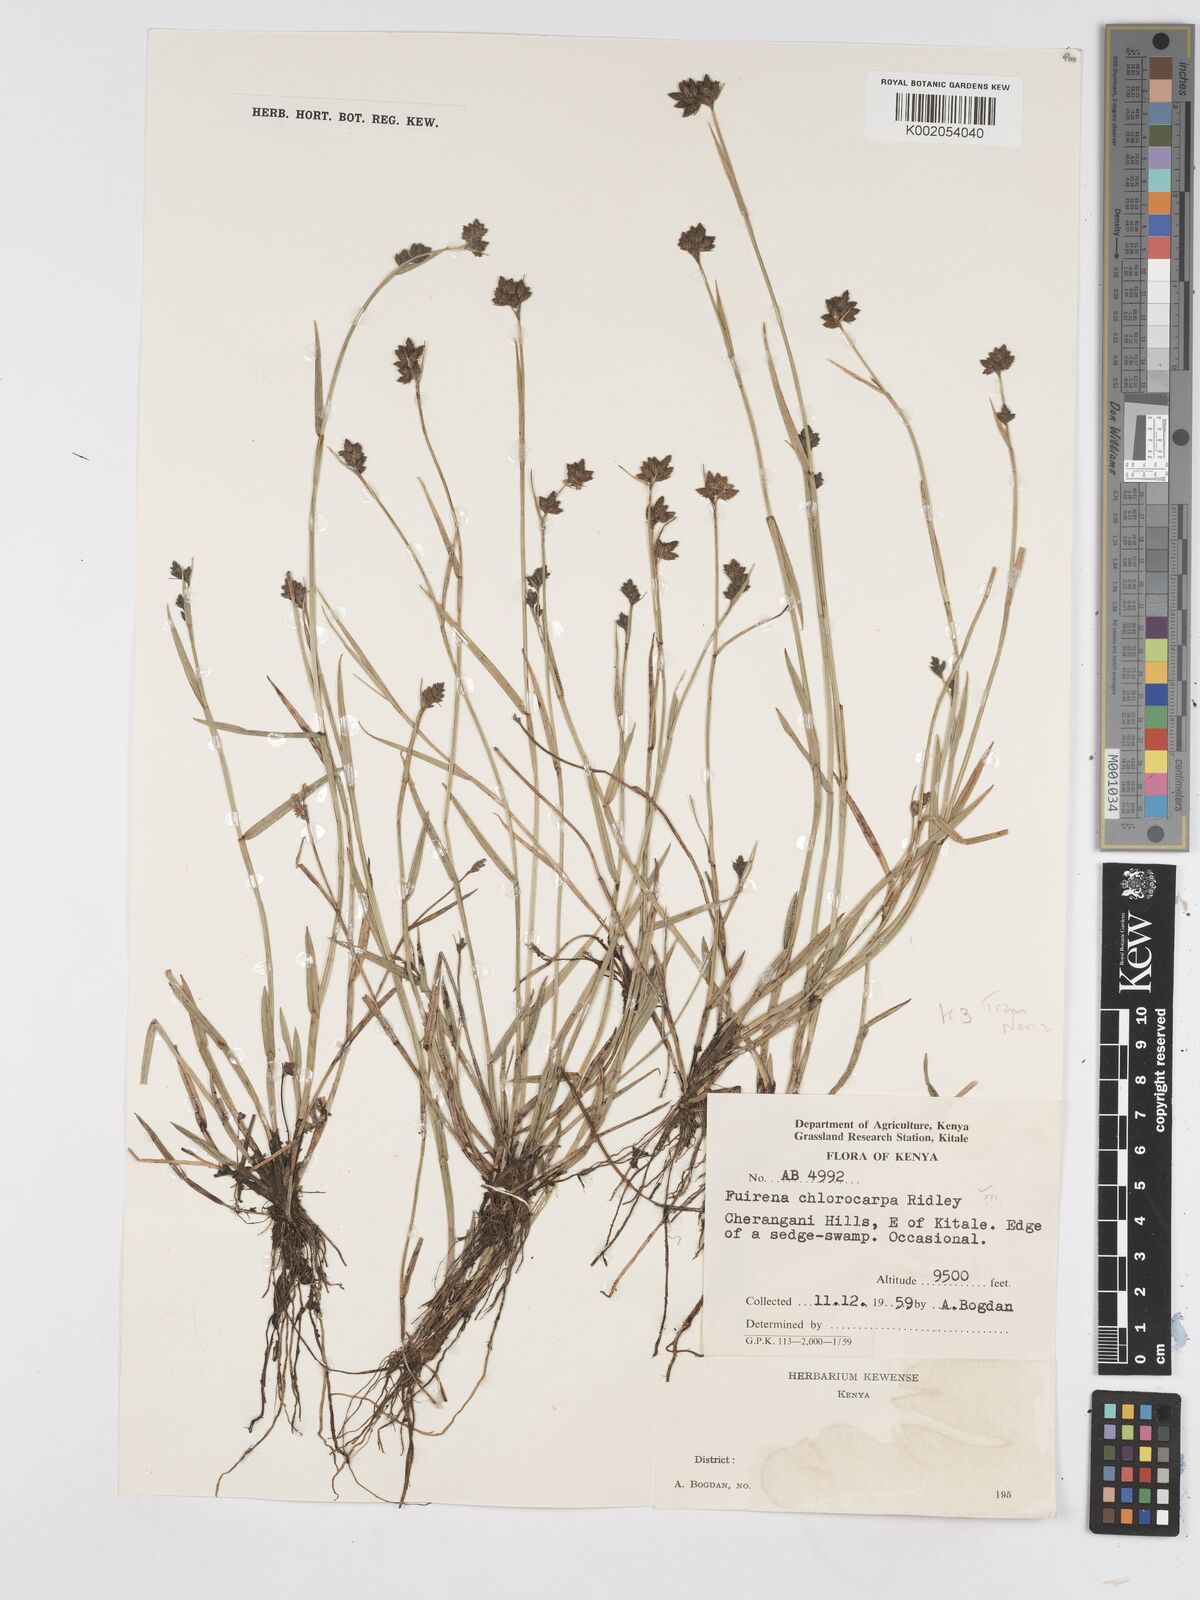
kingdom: Plantae
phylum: Tracheophyta
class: Liliopsida
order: Poales
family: Cyperaceae
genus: Fuirena
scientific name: Fuirena stricta
